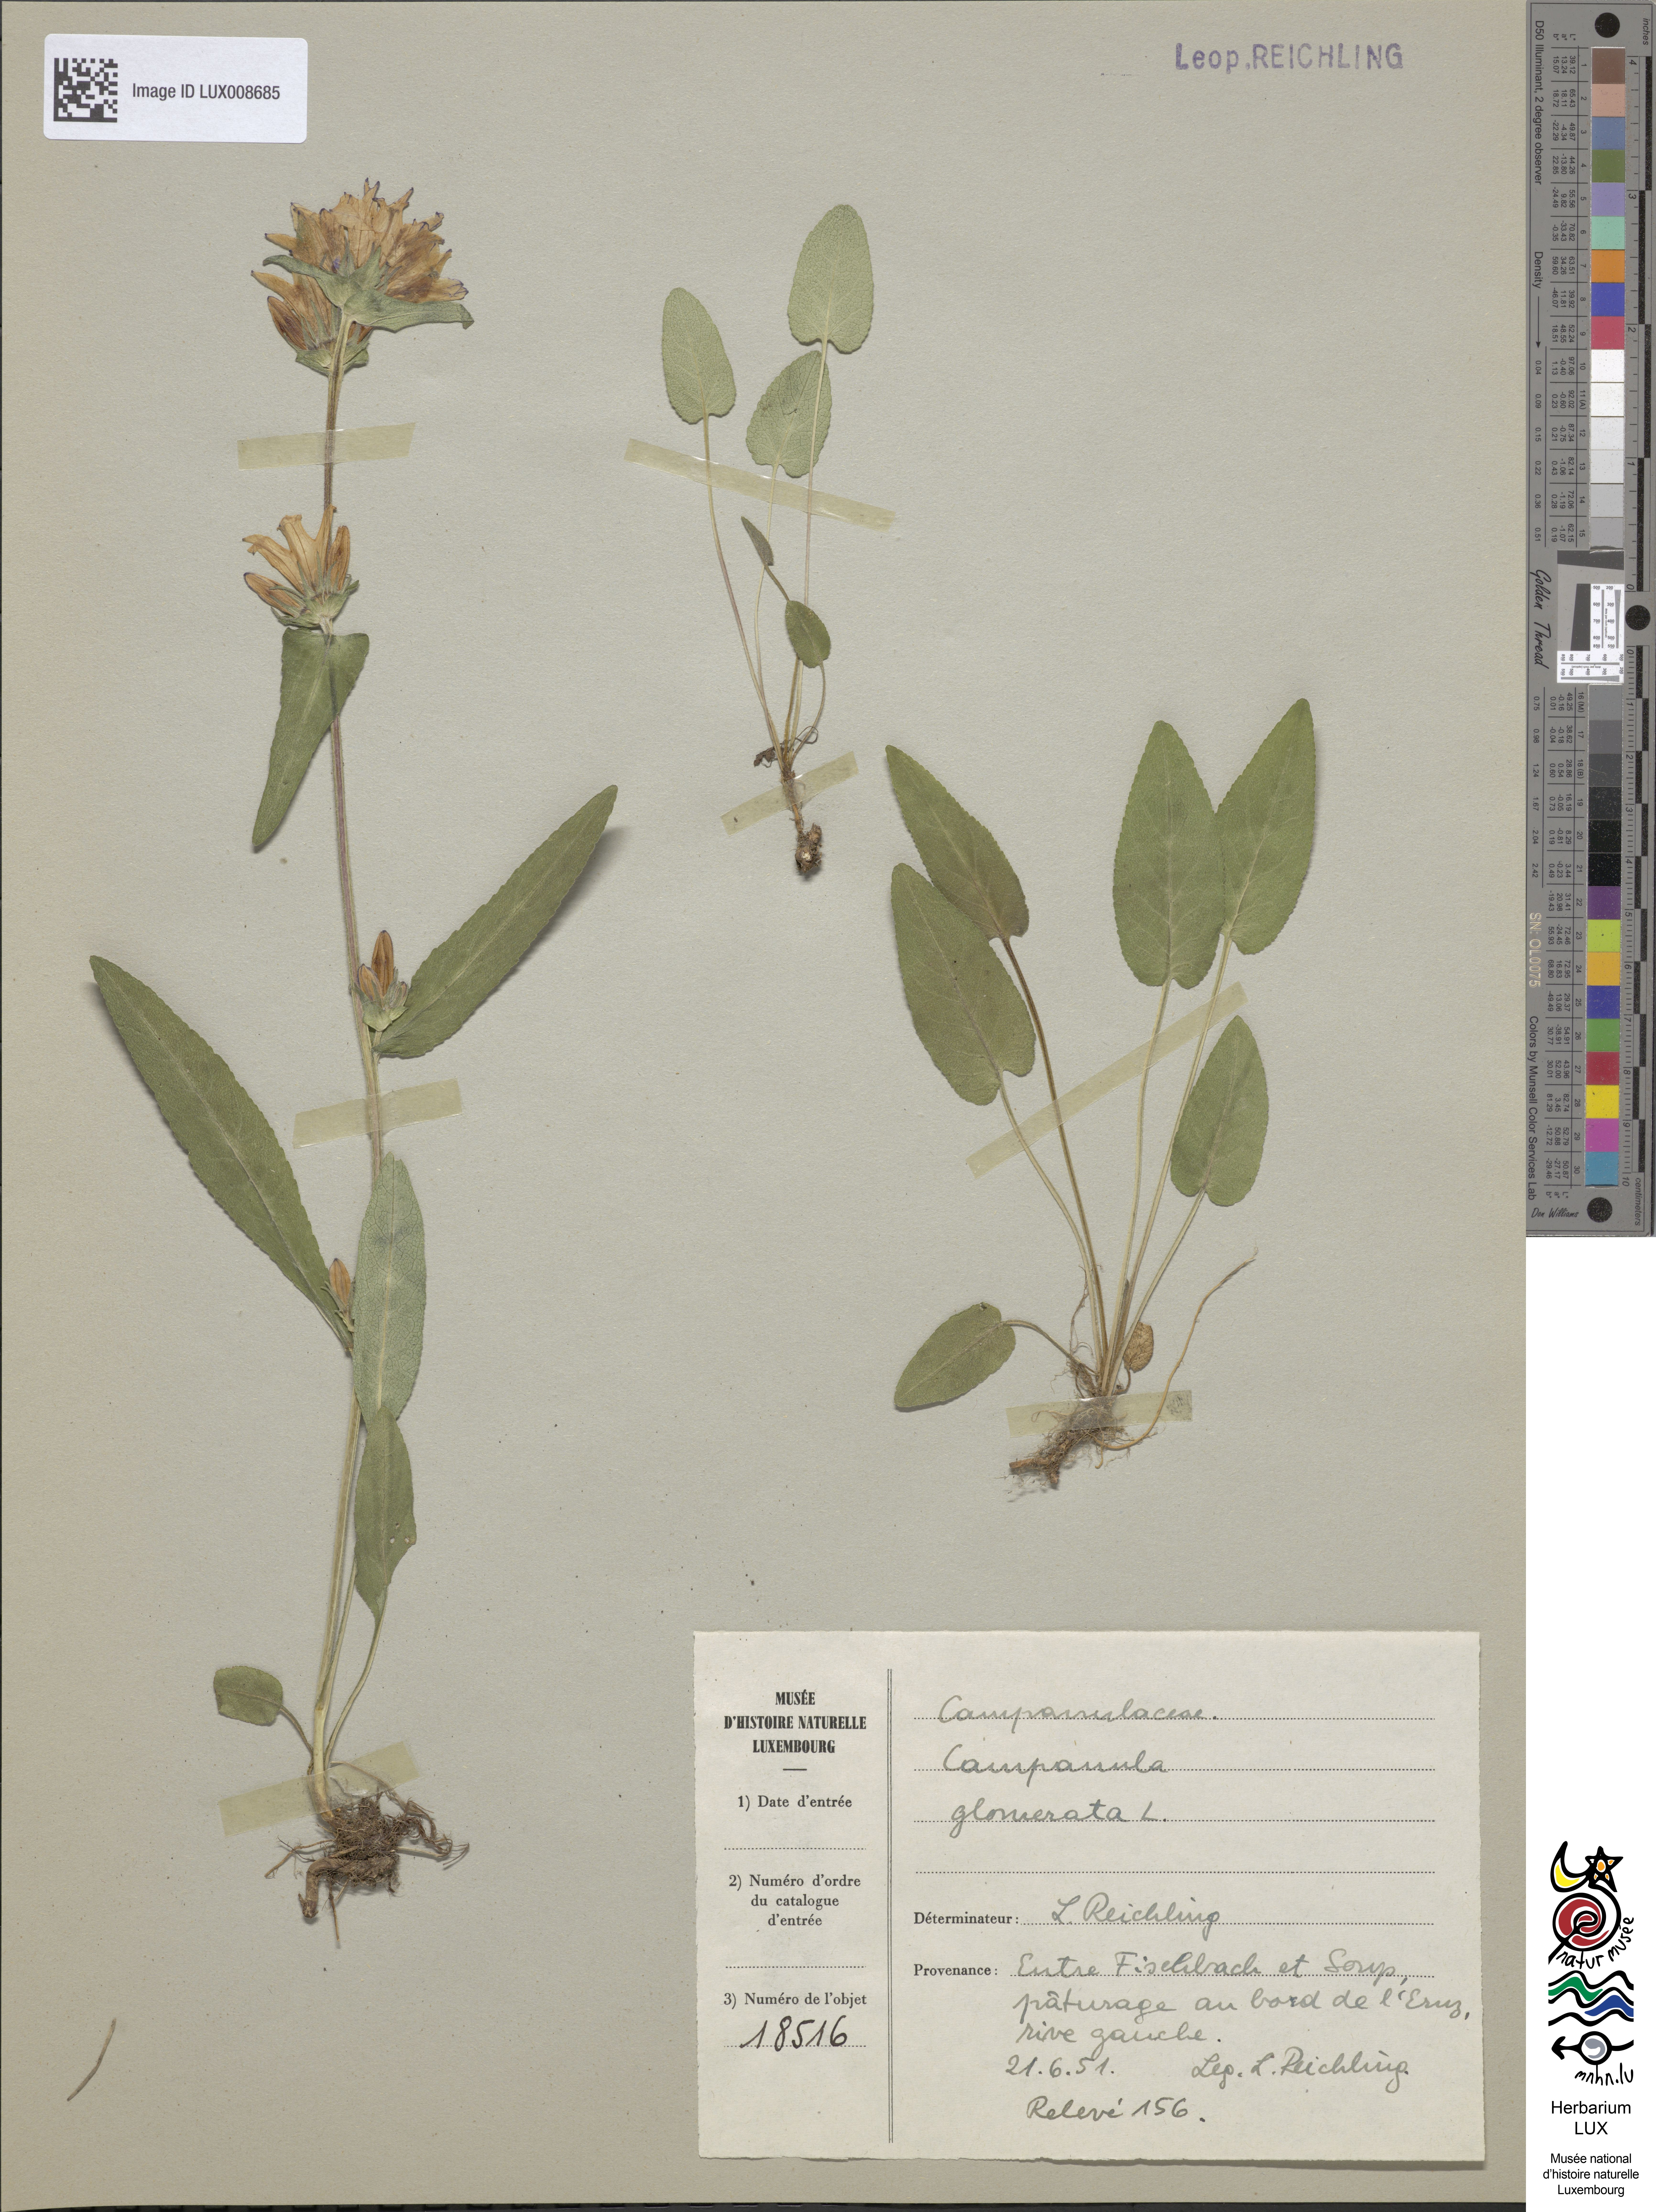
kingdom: Plantae
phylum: Tracheophyta
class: Magnoliopsida
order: Asterales
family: Campanulaceae
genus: Campanula
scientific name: Campanula glomerata
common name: Clustered bellflower
